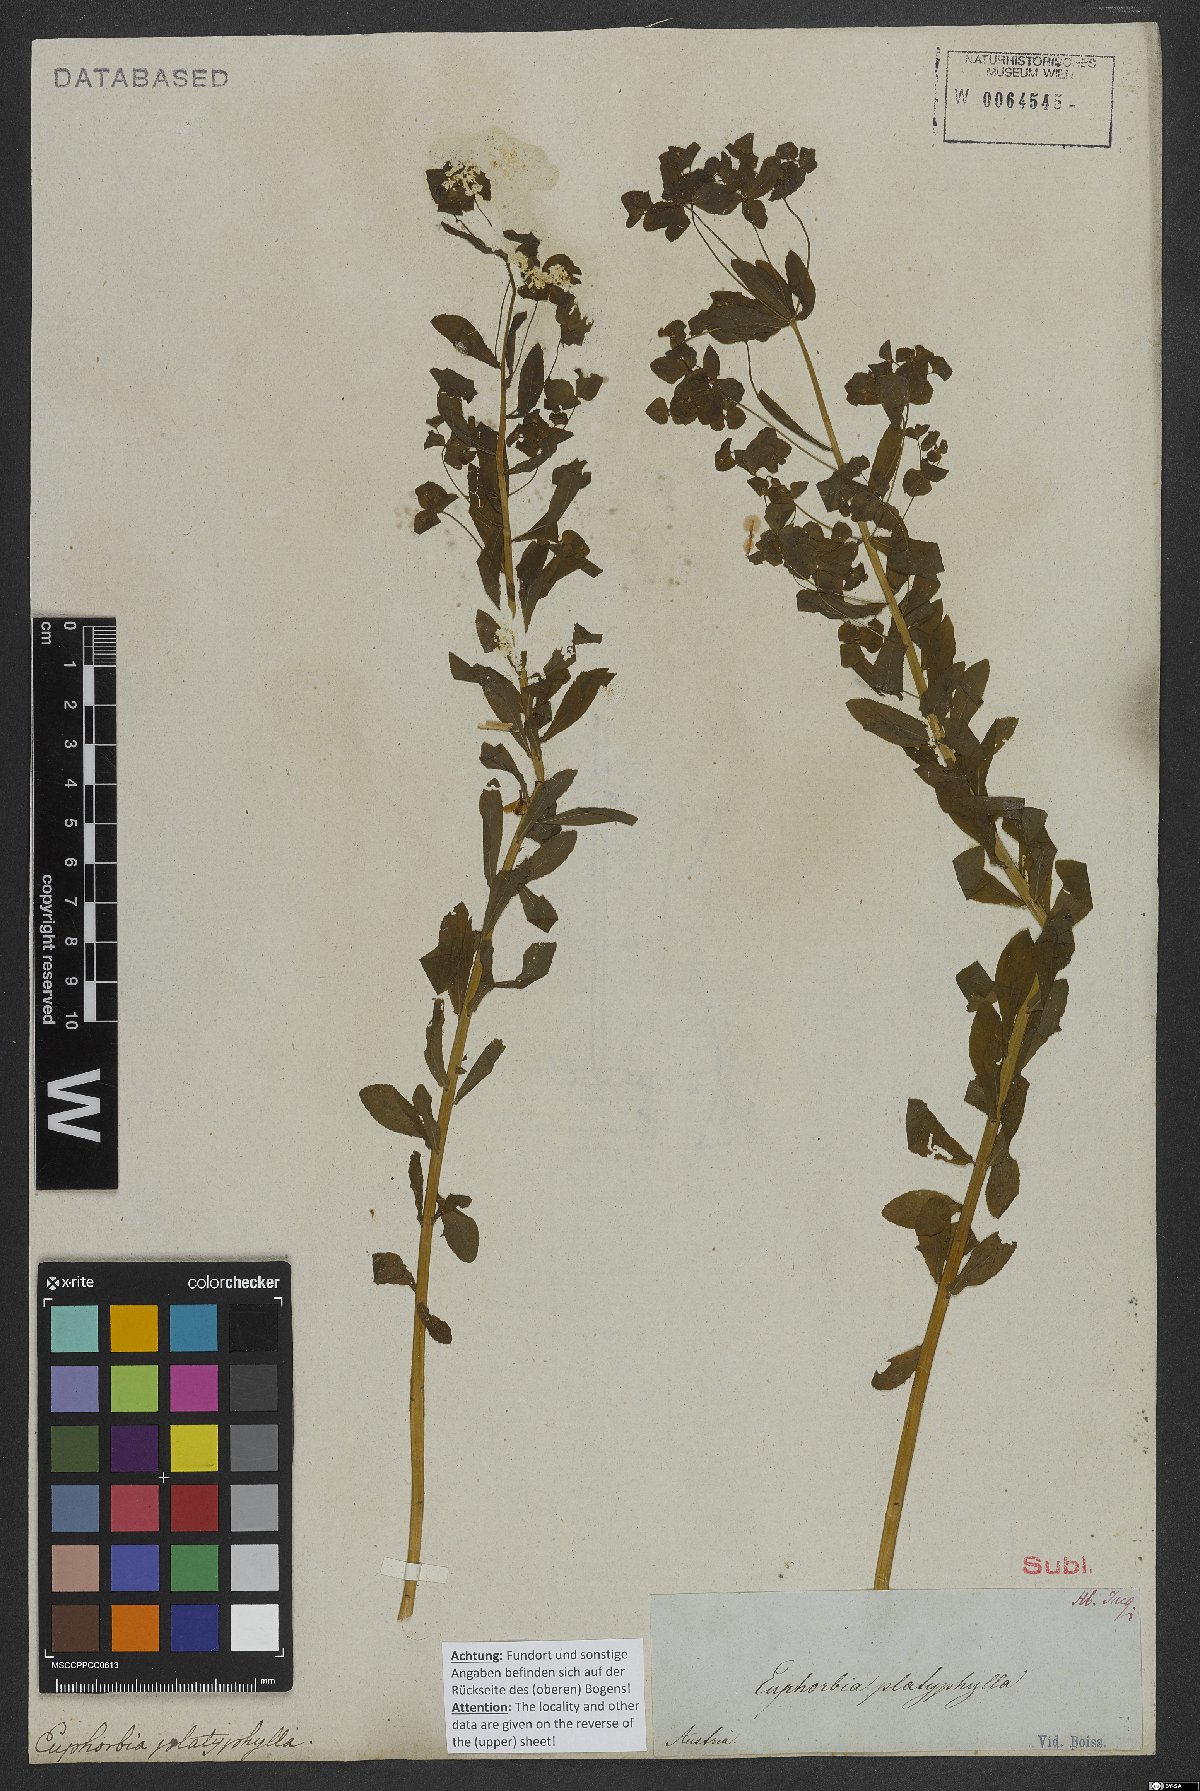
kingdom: Plantae
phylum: Tracheophyta
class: Magnoliopsida
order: Malpighiales
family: Euphorbiaceae
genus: Euphorbia
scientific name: Euphorbia platyphyllos
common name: Broad-leaved spurge
